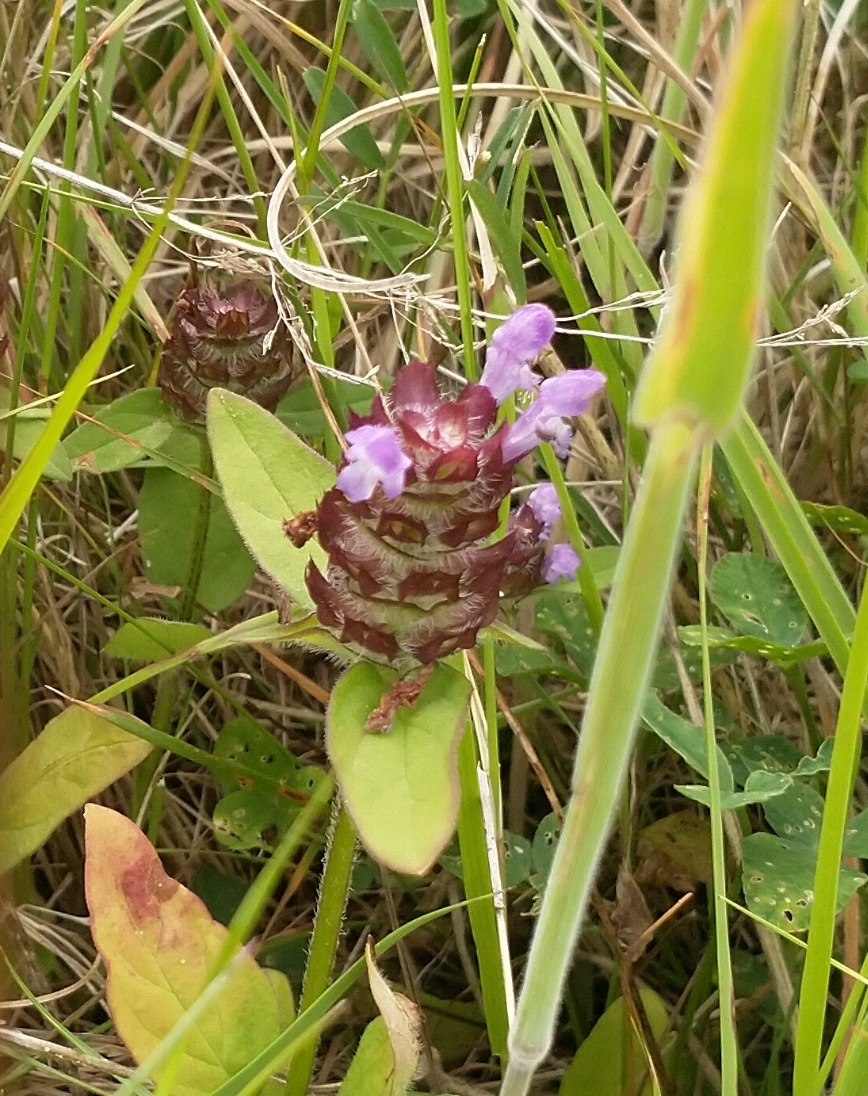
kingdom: Plantae
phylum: Tracheophyta
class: Magnoliopsida
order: Lamiales
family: Lamiaceae
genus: Prunella
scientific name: Prunella vulgaris
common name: Almindelig brunelle
